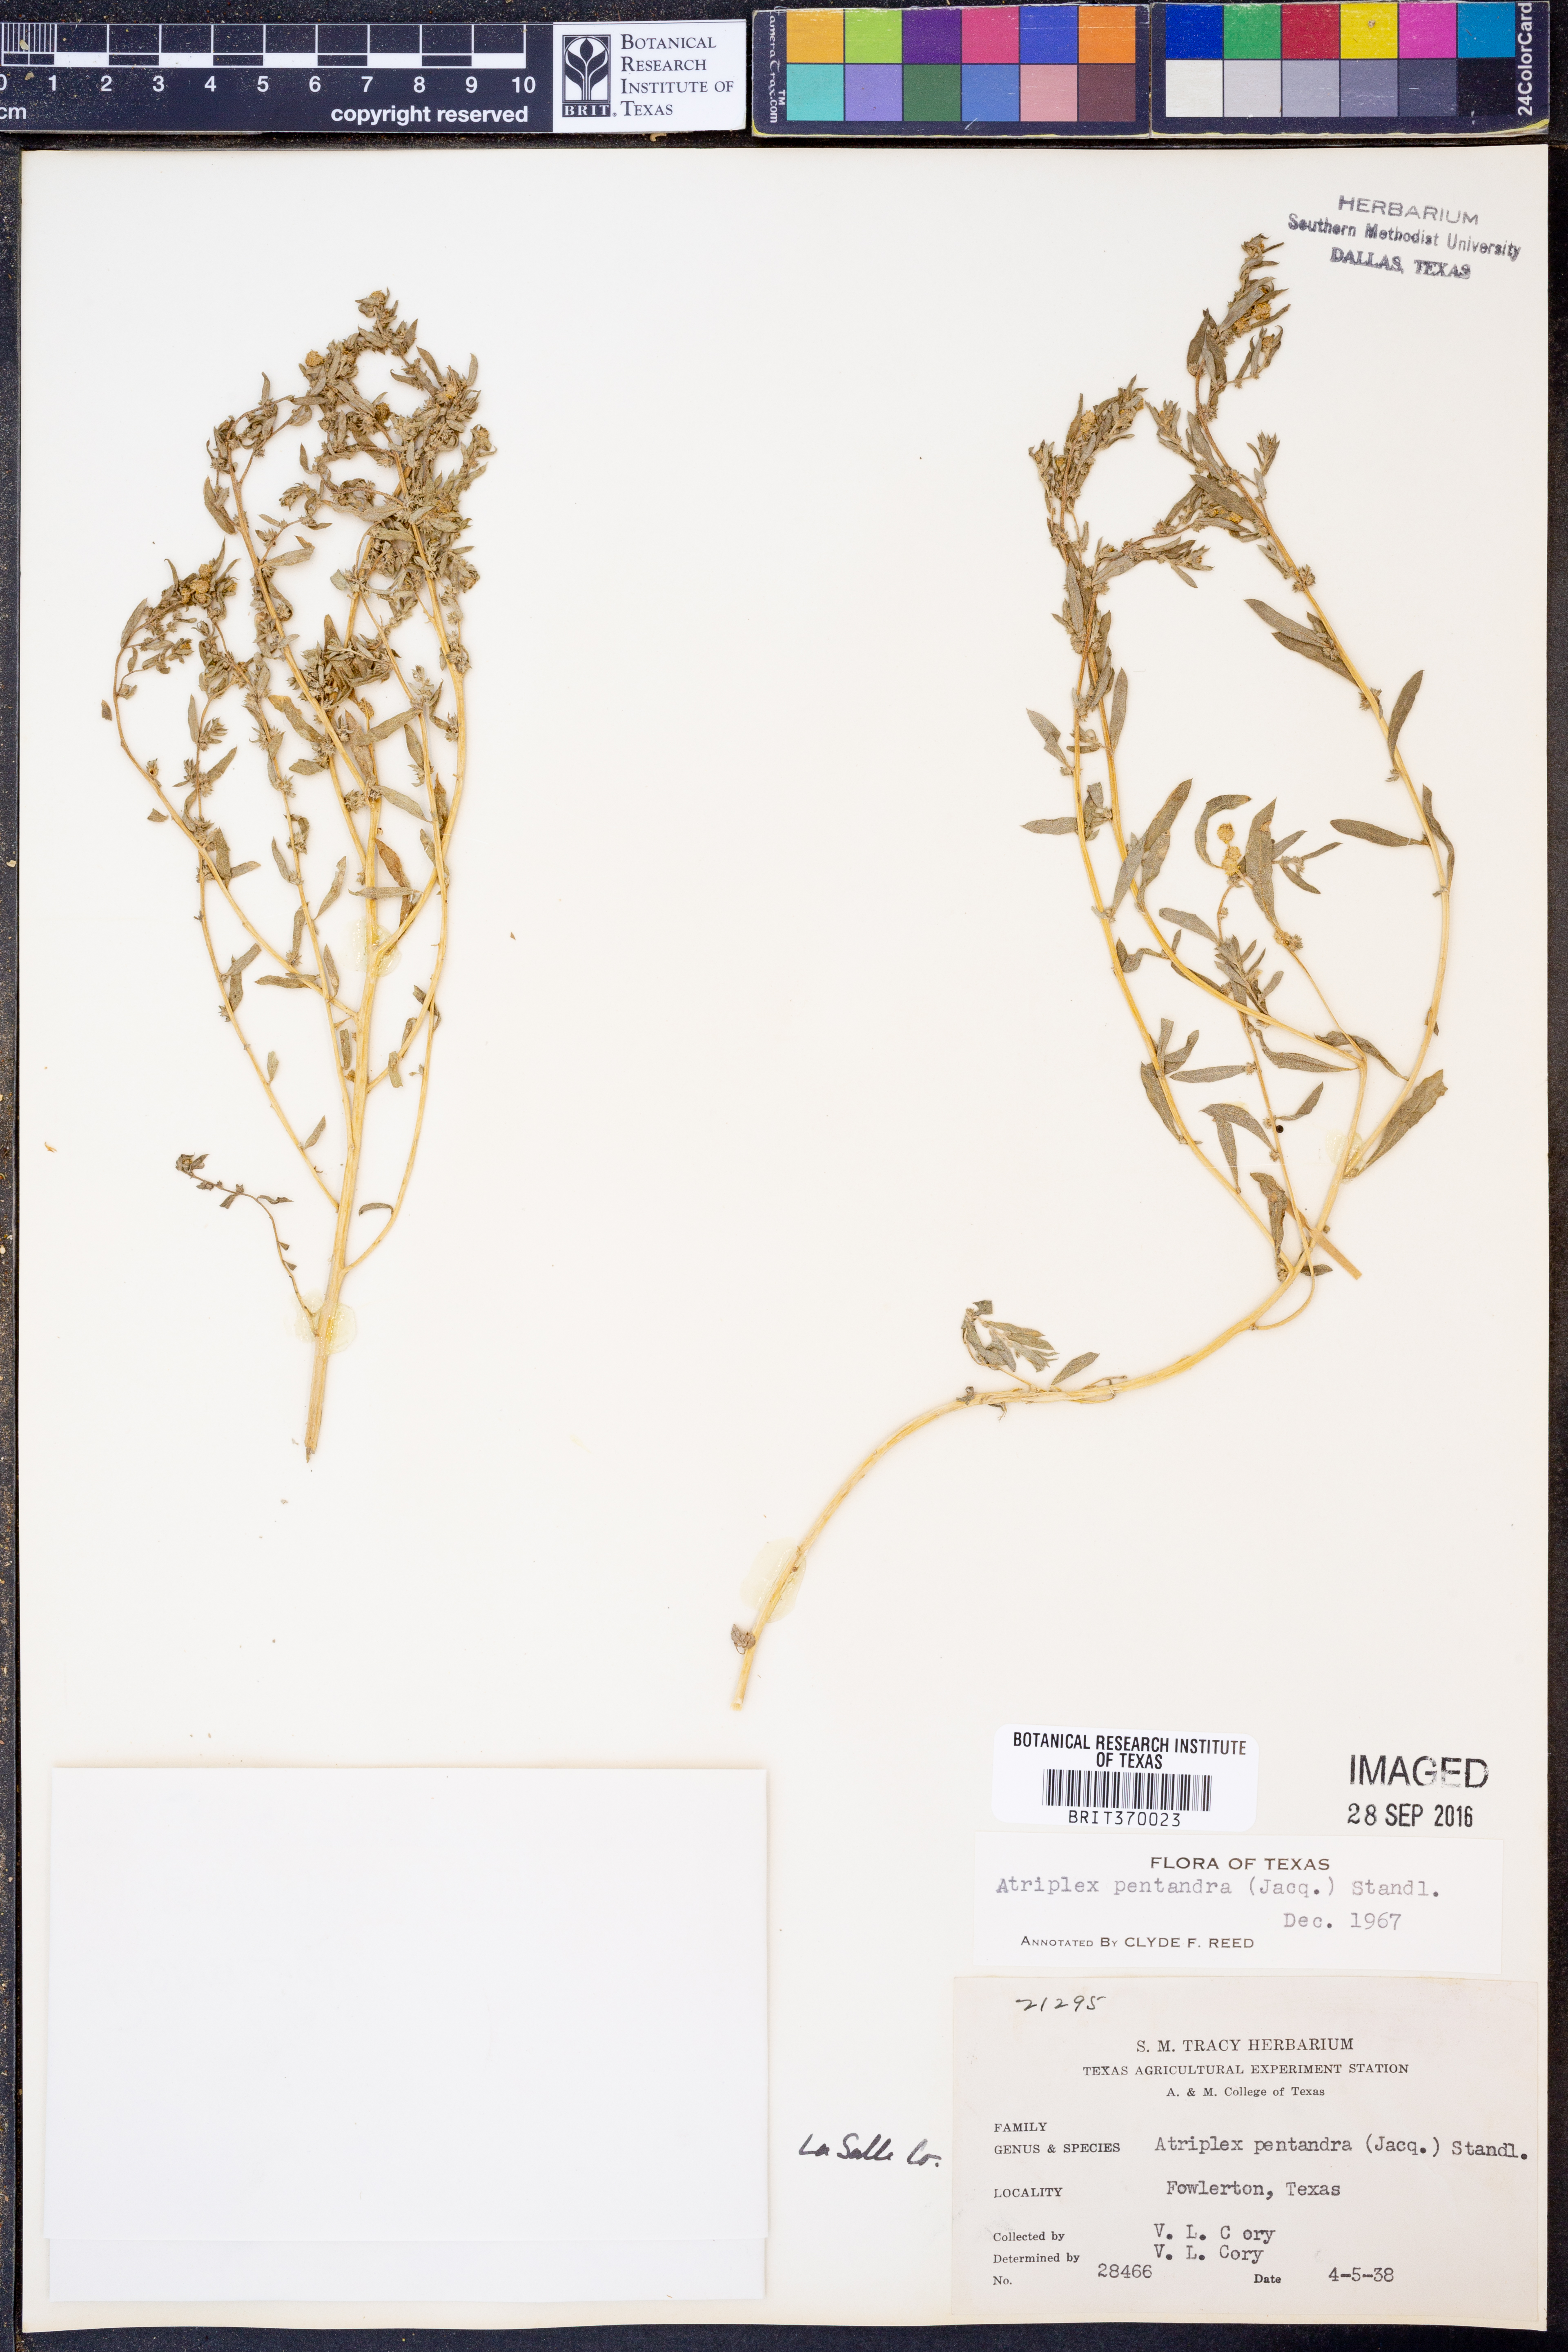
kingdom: Plantae
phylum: Tracheophyta
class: Magnoliopsida
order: Caryophyllales
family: Amaranthaceae
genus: Atriplex
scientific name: Atriplex cristata
